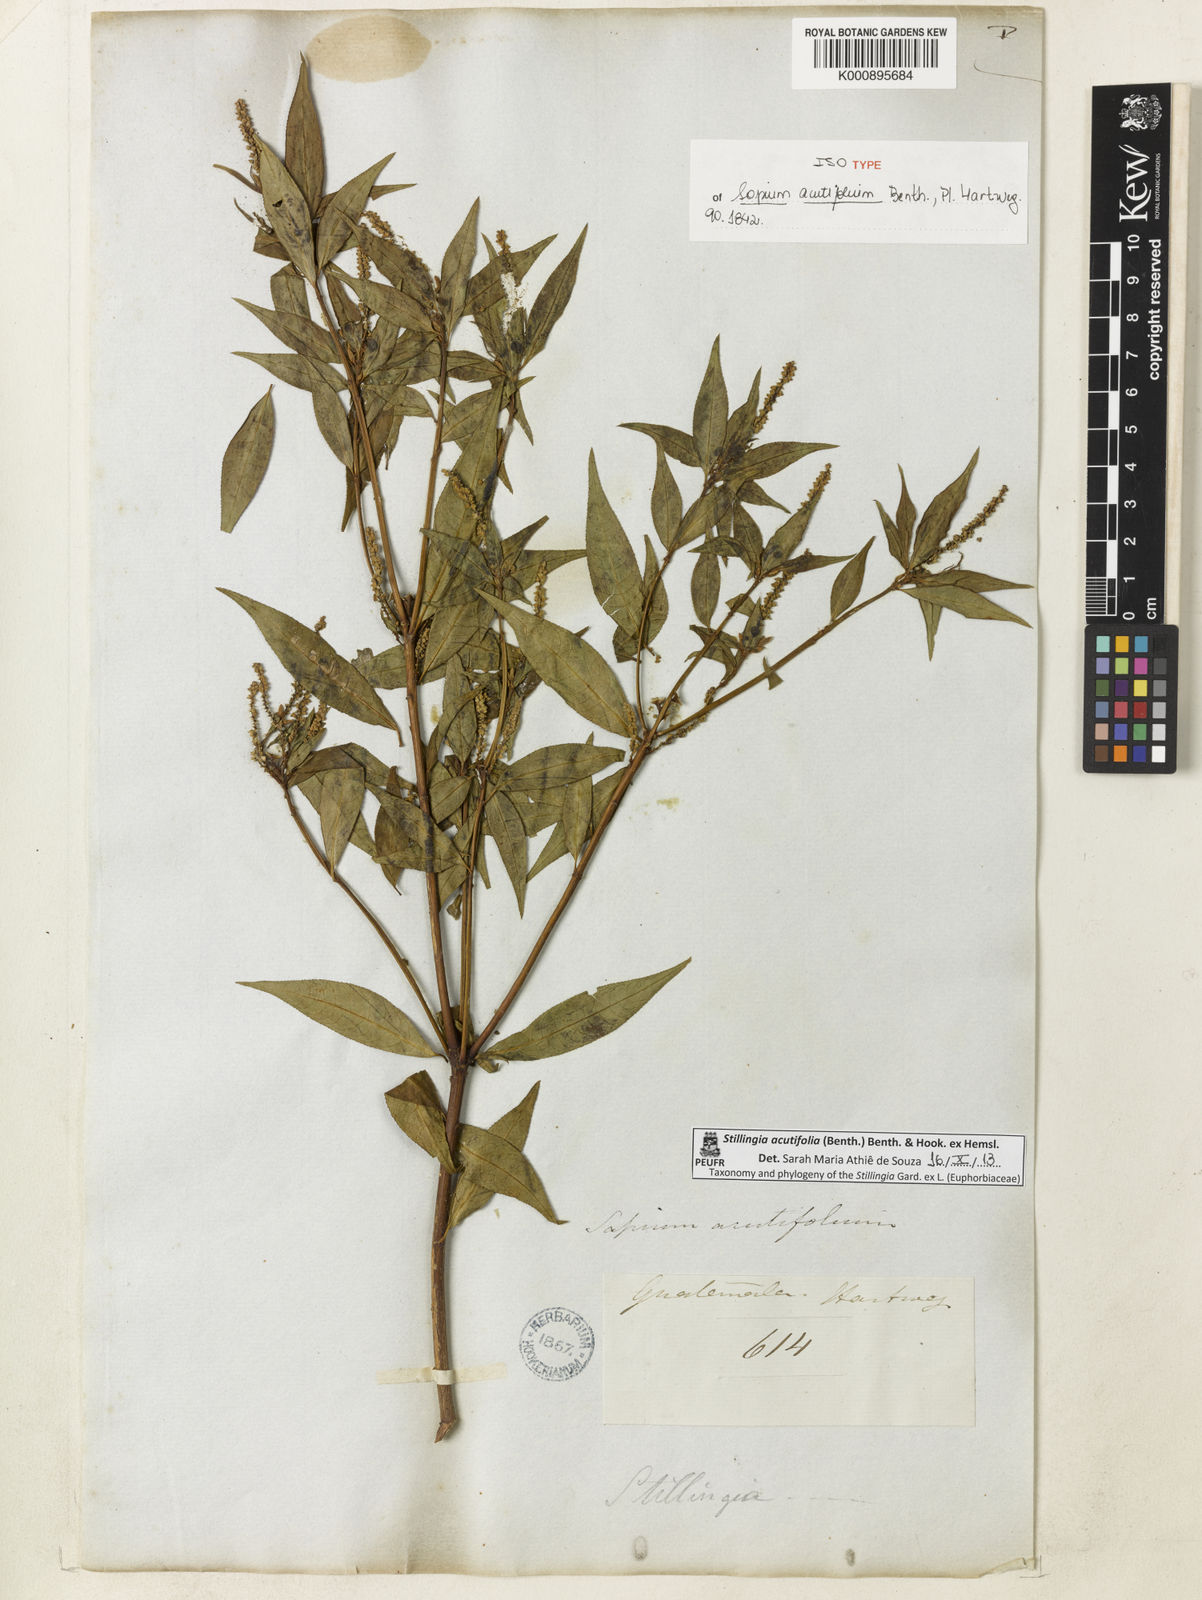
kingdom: Plantae
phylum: Tracheophyta
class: Magnoliopsida
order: Malpighiales
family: Euphorbiaceae
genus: Stillingia
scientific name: Stillingia acutifolia
